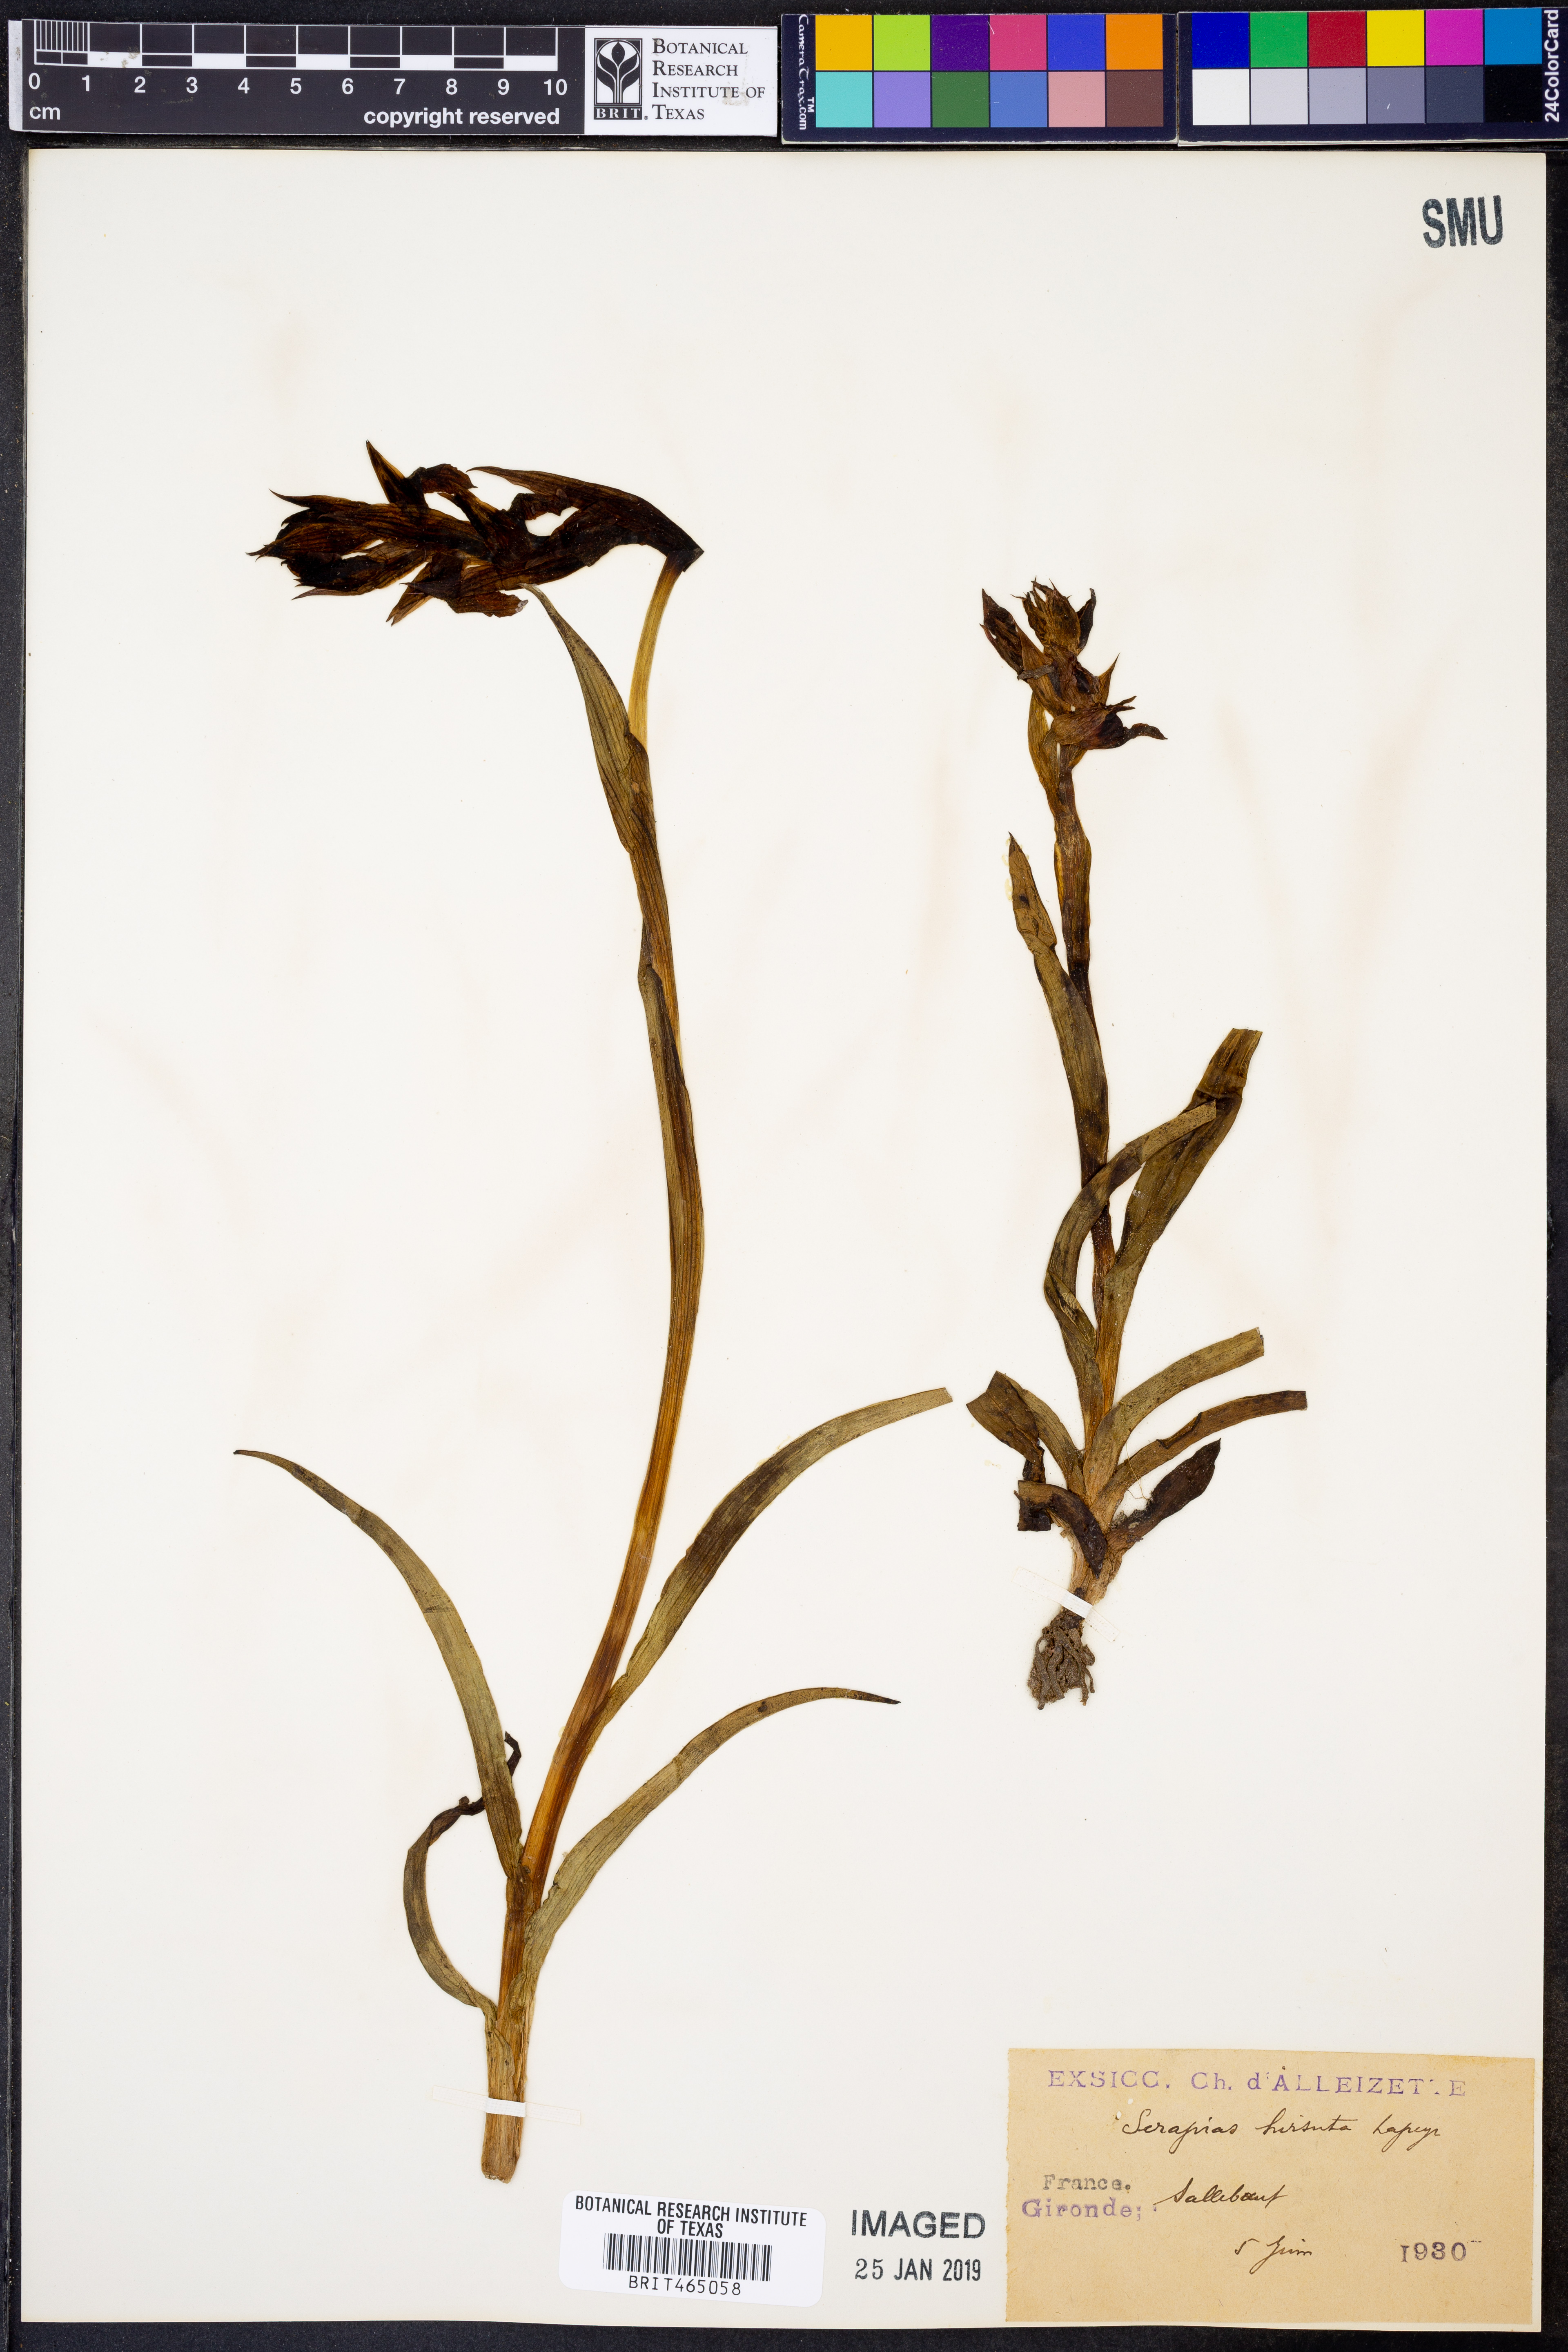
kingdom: Plantae
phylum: Tracheophyta
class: Liliopsida
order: Asparagales
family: Orchidaceae
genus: Serapias
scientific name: Serapias vomeracea
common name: Long-lipped tongue-orchid
